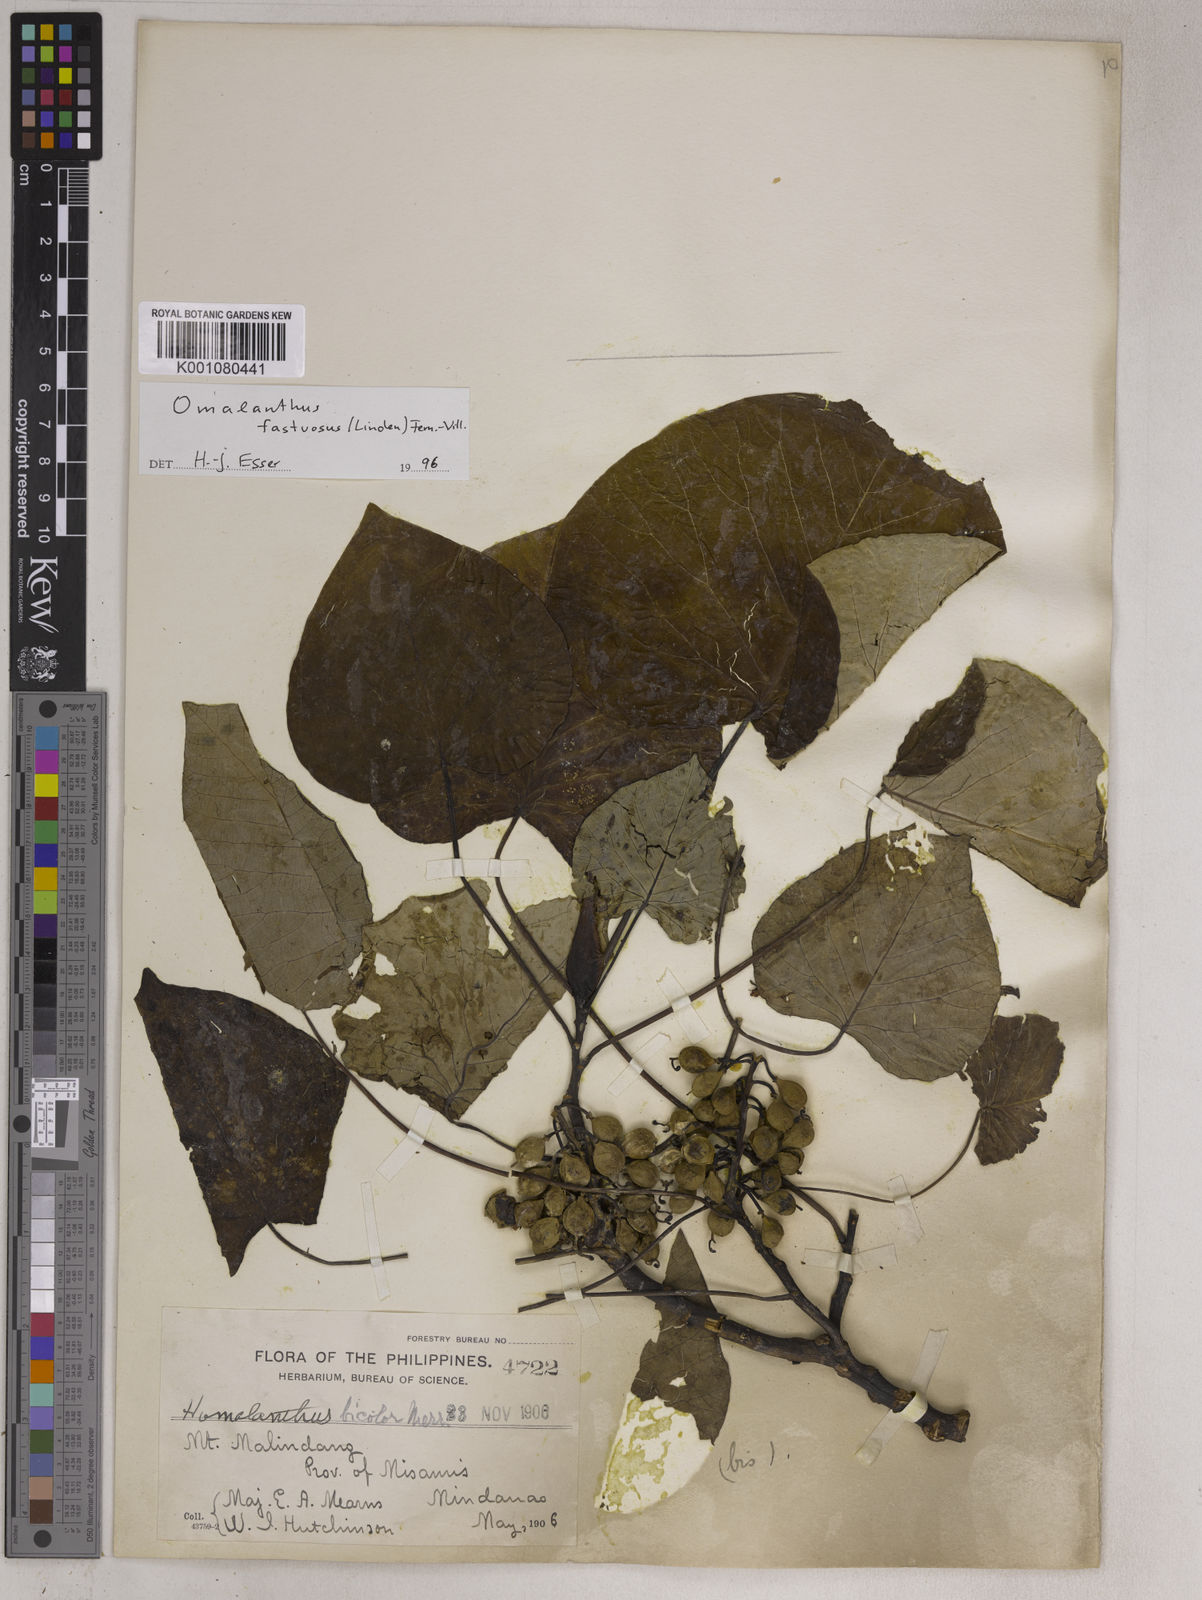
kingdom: Plantae
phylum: Tracheophyta
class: Magnoliopsida
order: Malpighiales
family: Euphorbiaceae
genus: Homalanthus
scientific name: Homalanthus fastuosus
